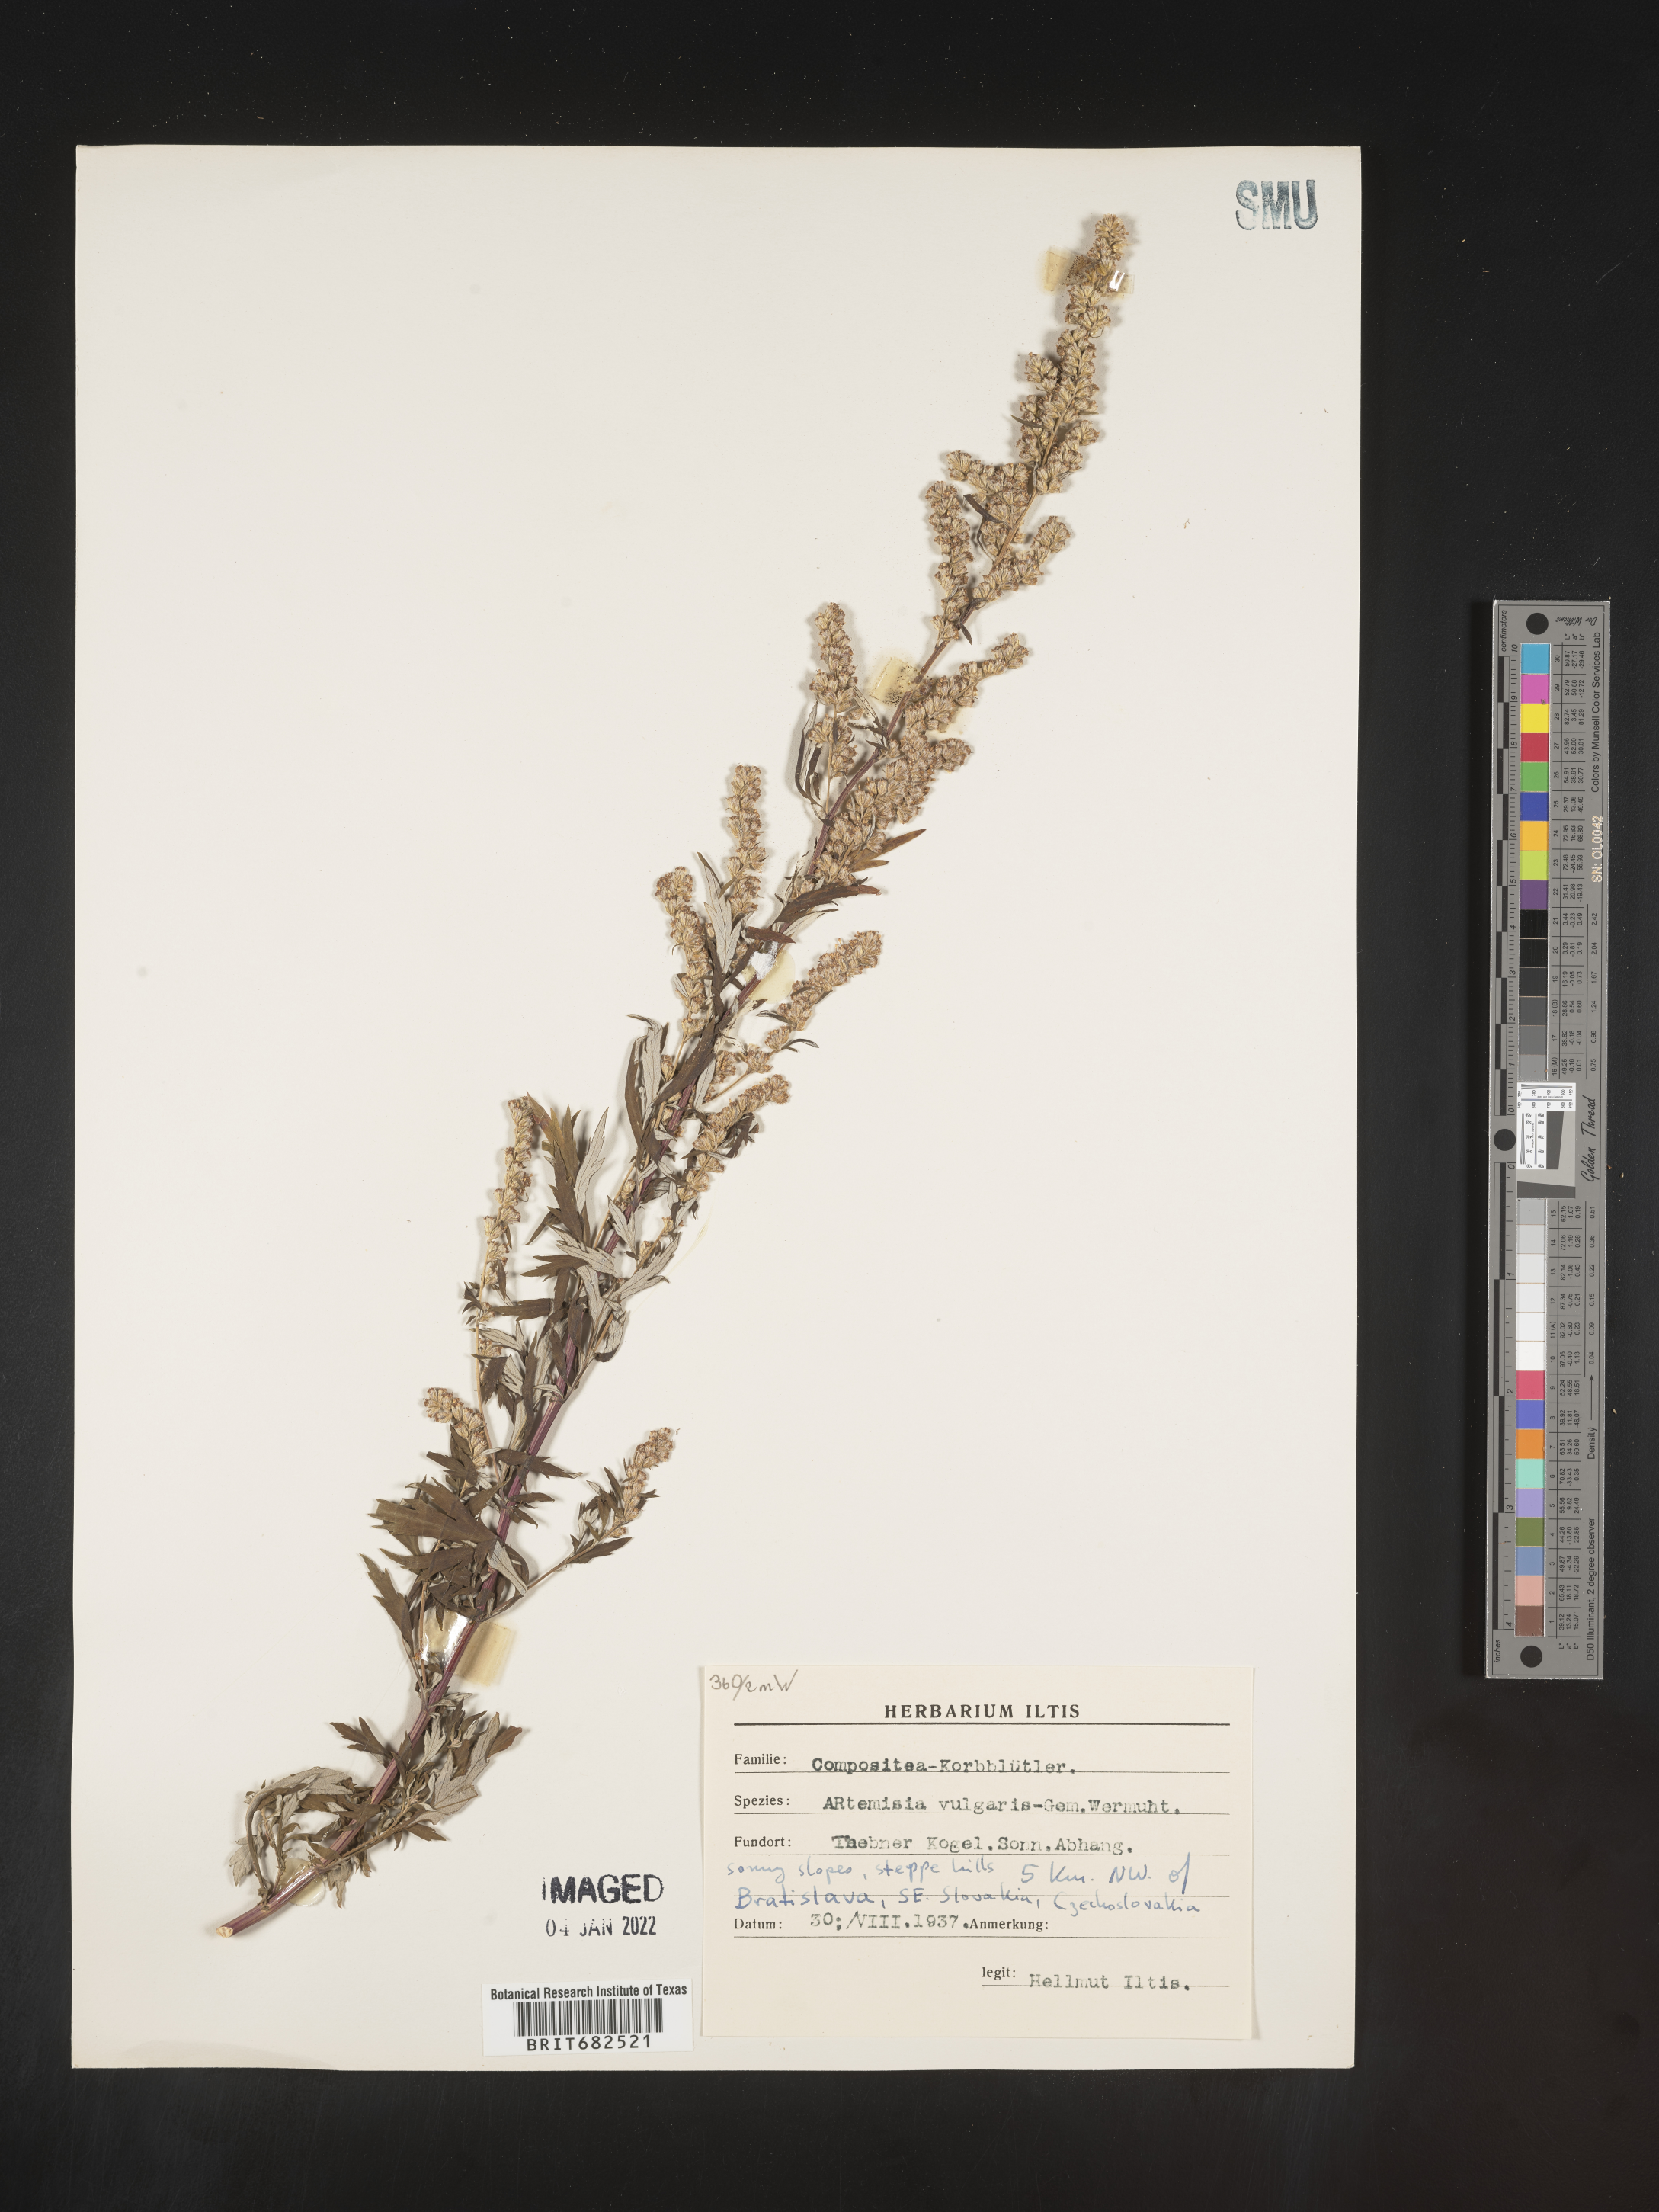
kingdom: Plantae
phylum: Tracheophyta
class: Magnoliopsida
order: Asterales
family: Asteraceae
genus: Artemisia
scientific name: Artemisia
